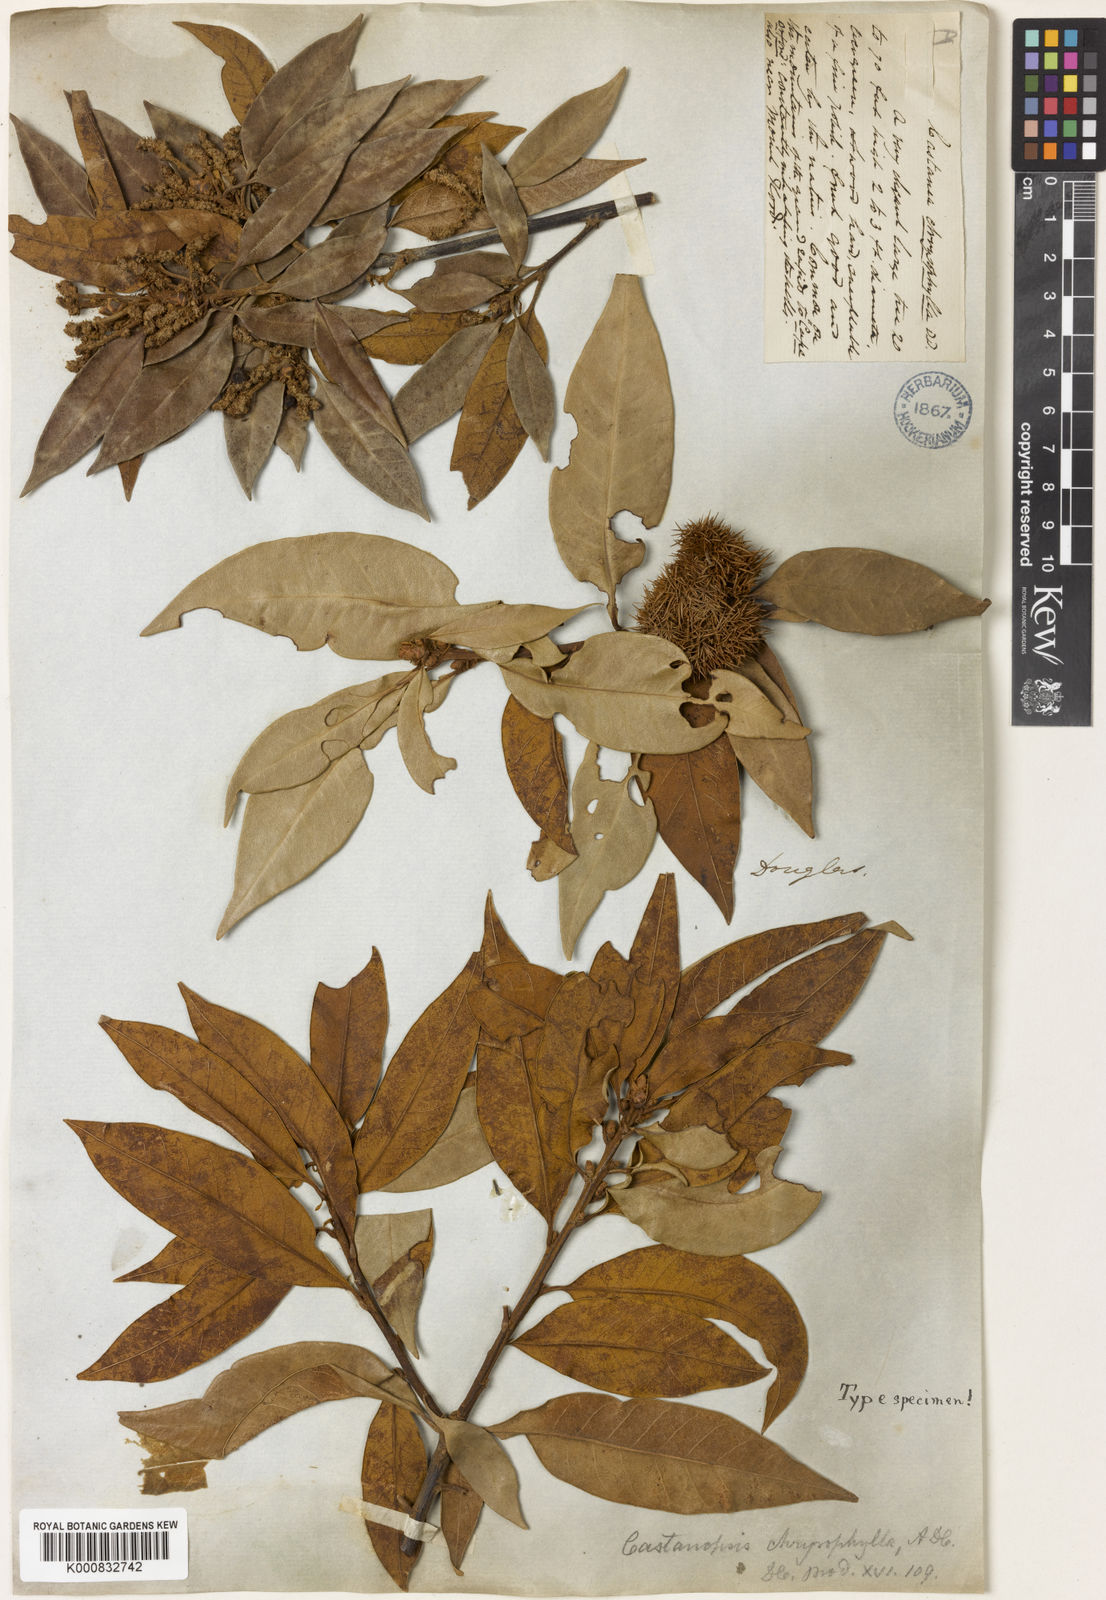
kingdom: Plantae
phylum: Tracheophyta
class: Magnoliopsida
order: Fagales
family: Fagaceae
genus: Chrysolepis
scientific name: Chrysolepis chrysophylla
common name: Giant chinquapin
